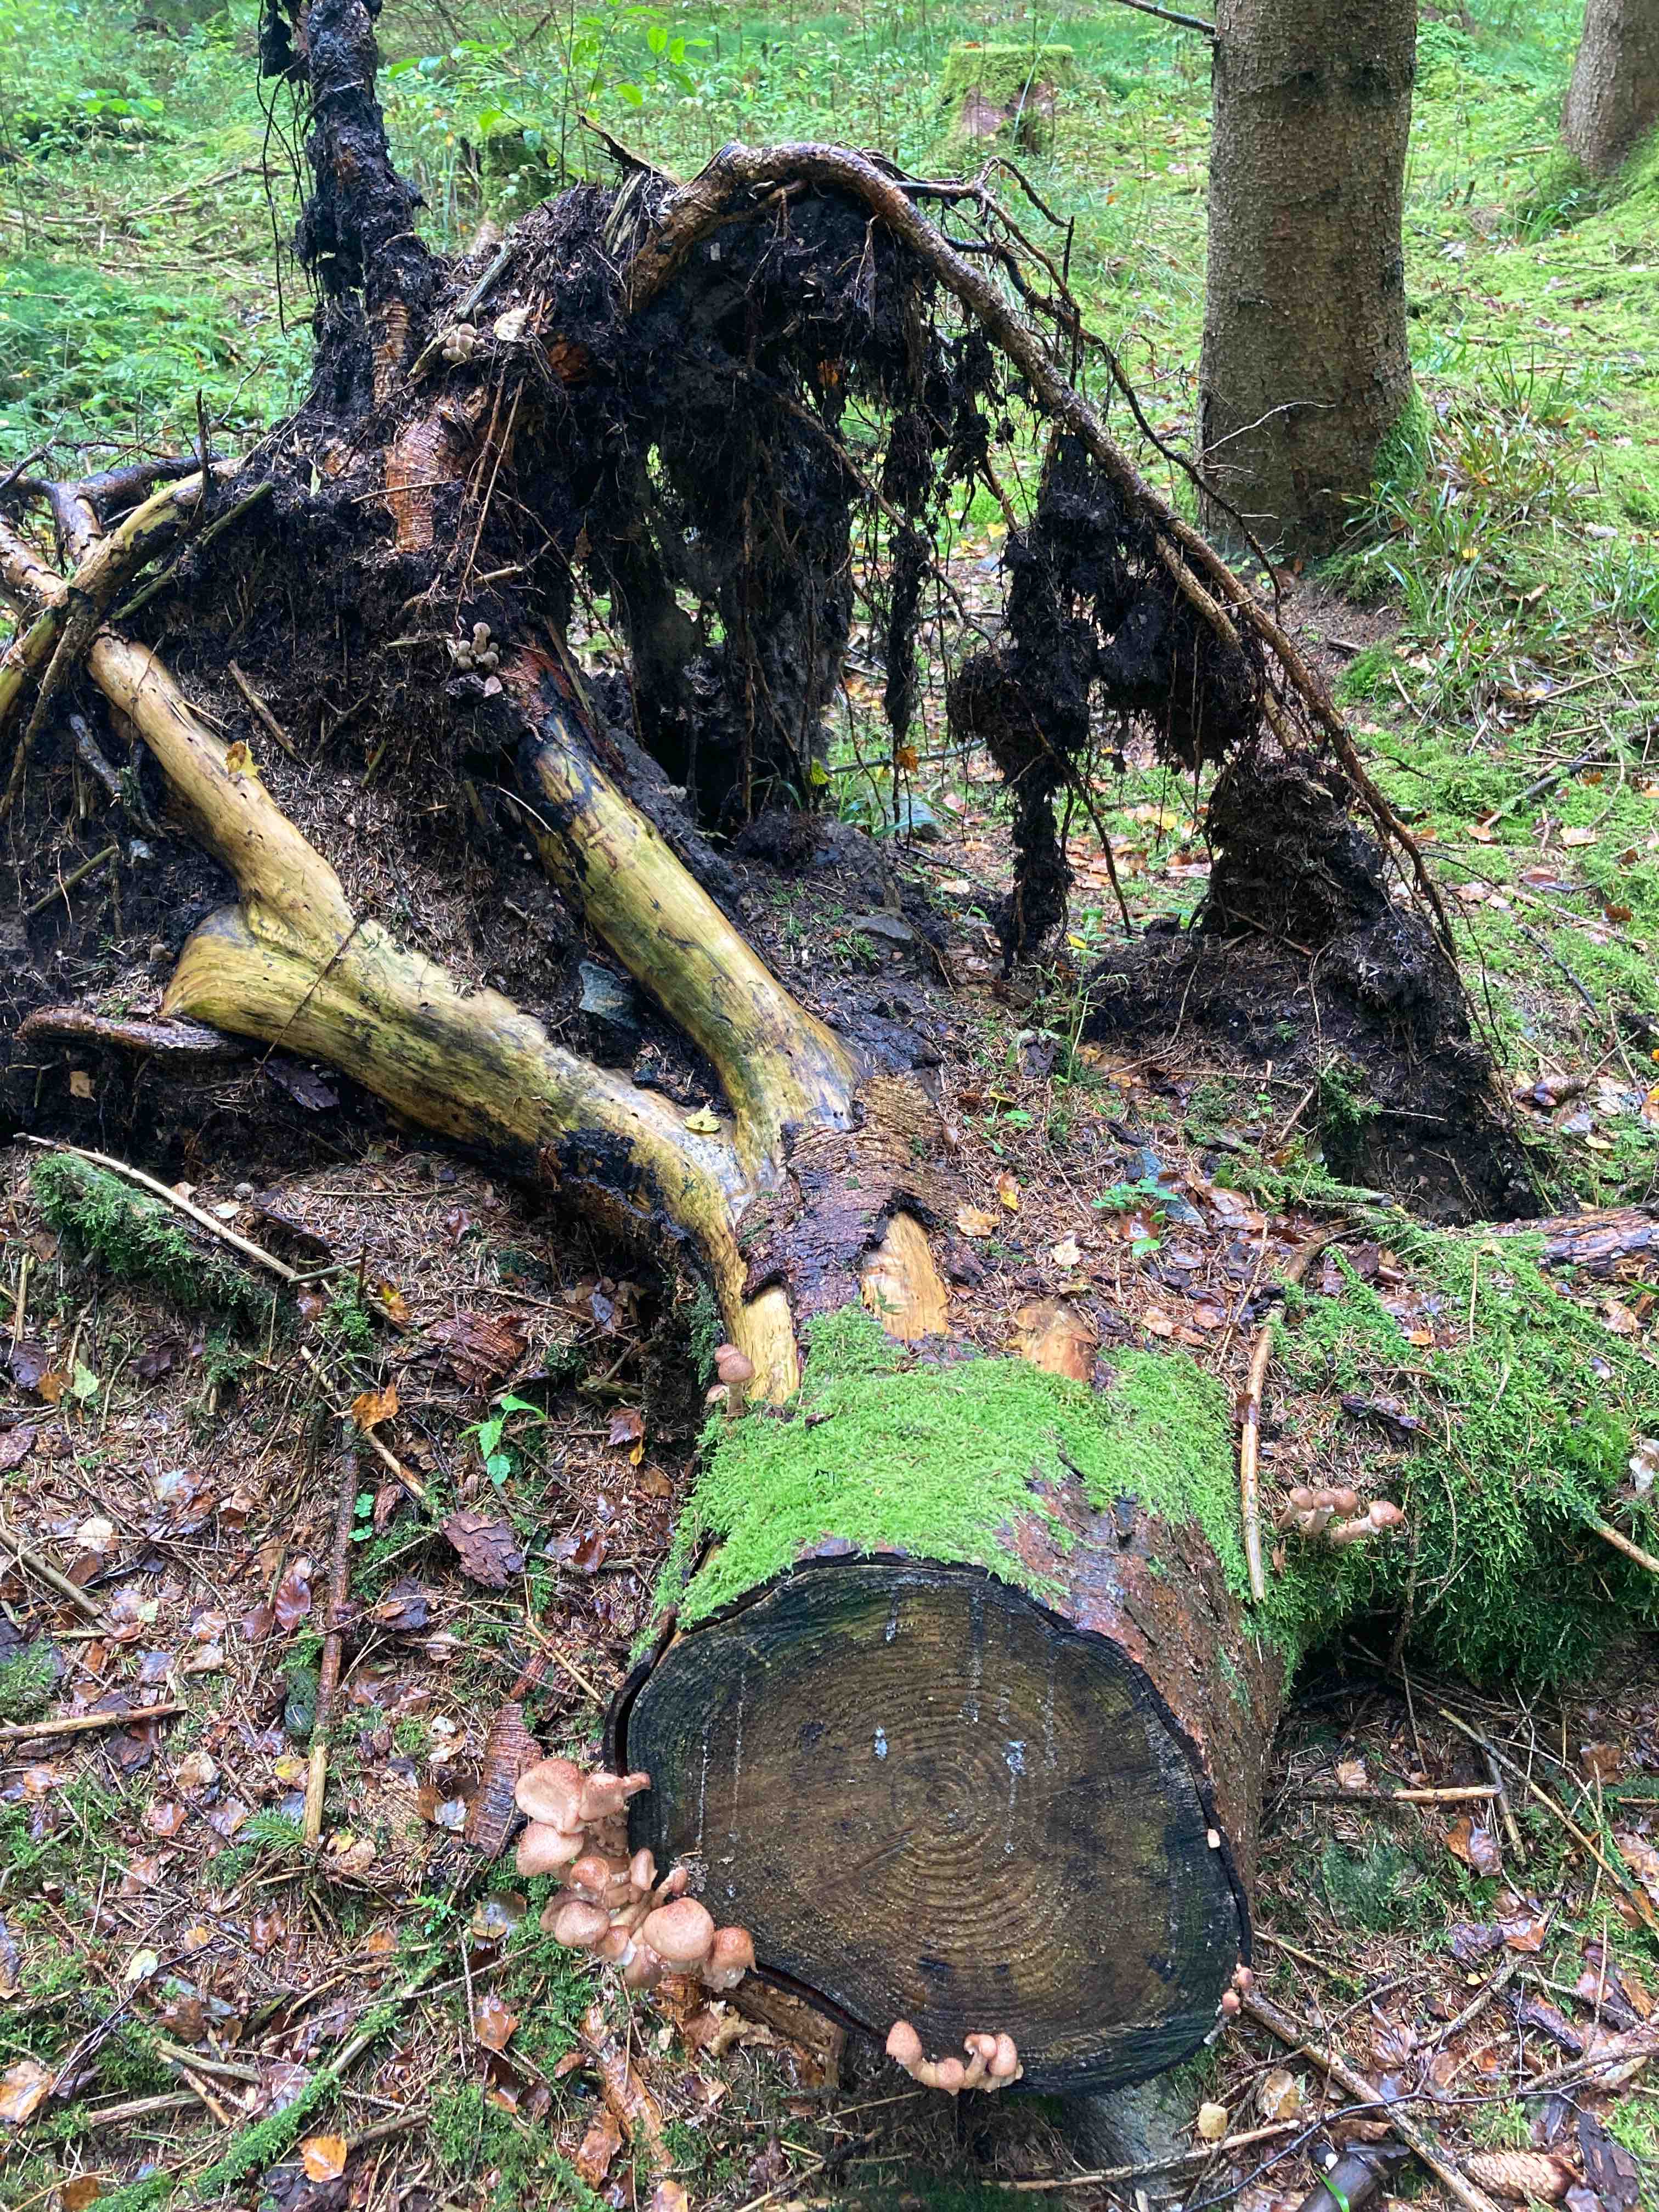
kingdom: Fungi
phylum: Basidiomycota
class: Agaricomycetes
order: Agaricales
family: Physalacriaceae
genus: Armillaria
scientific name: Armillaria ostoyae
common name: mørk honningsvamp
